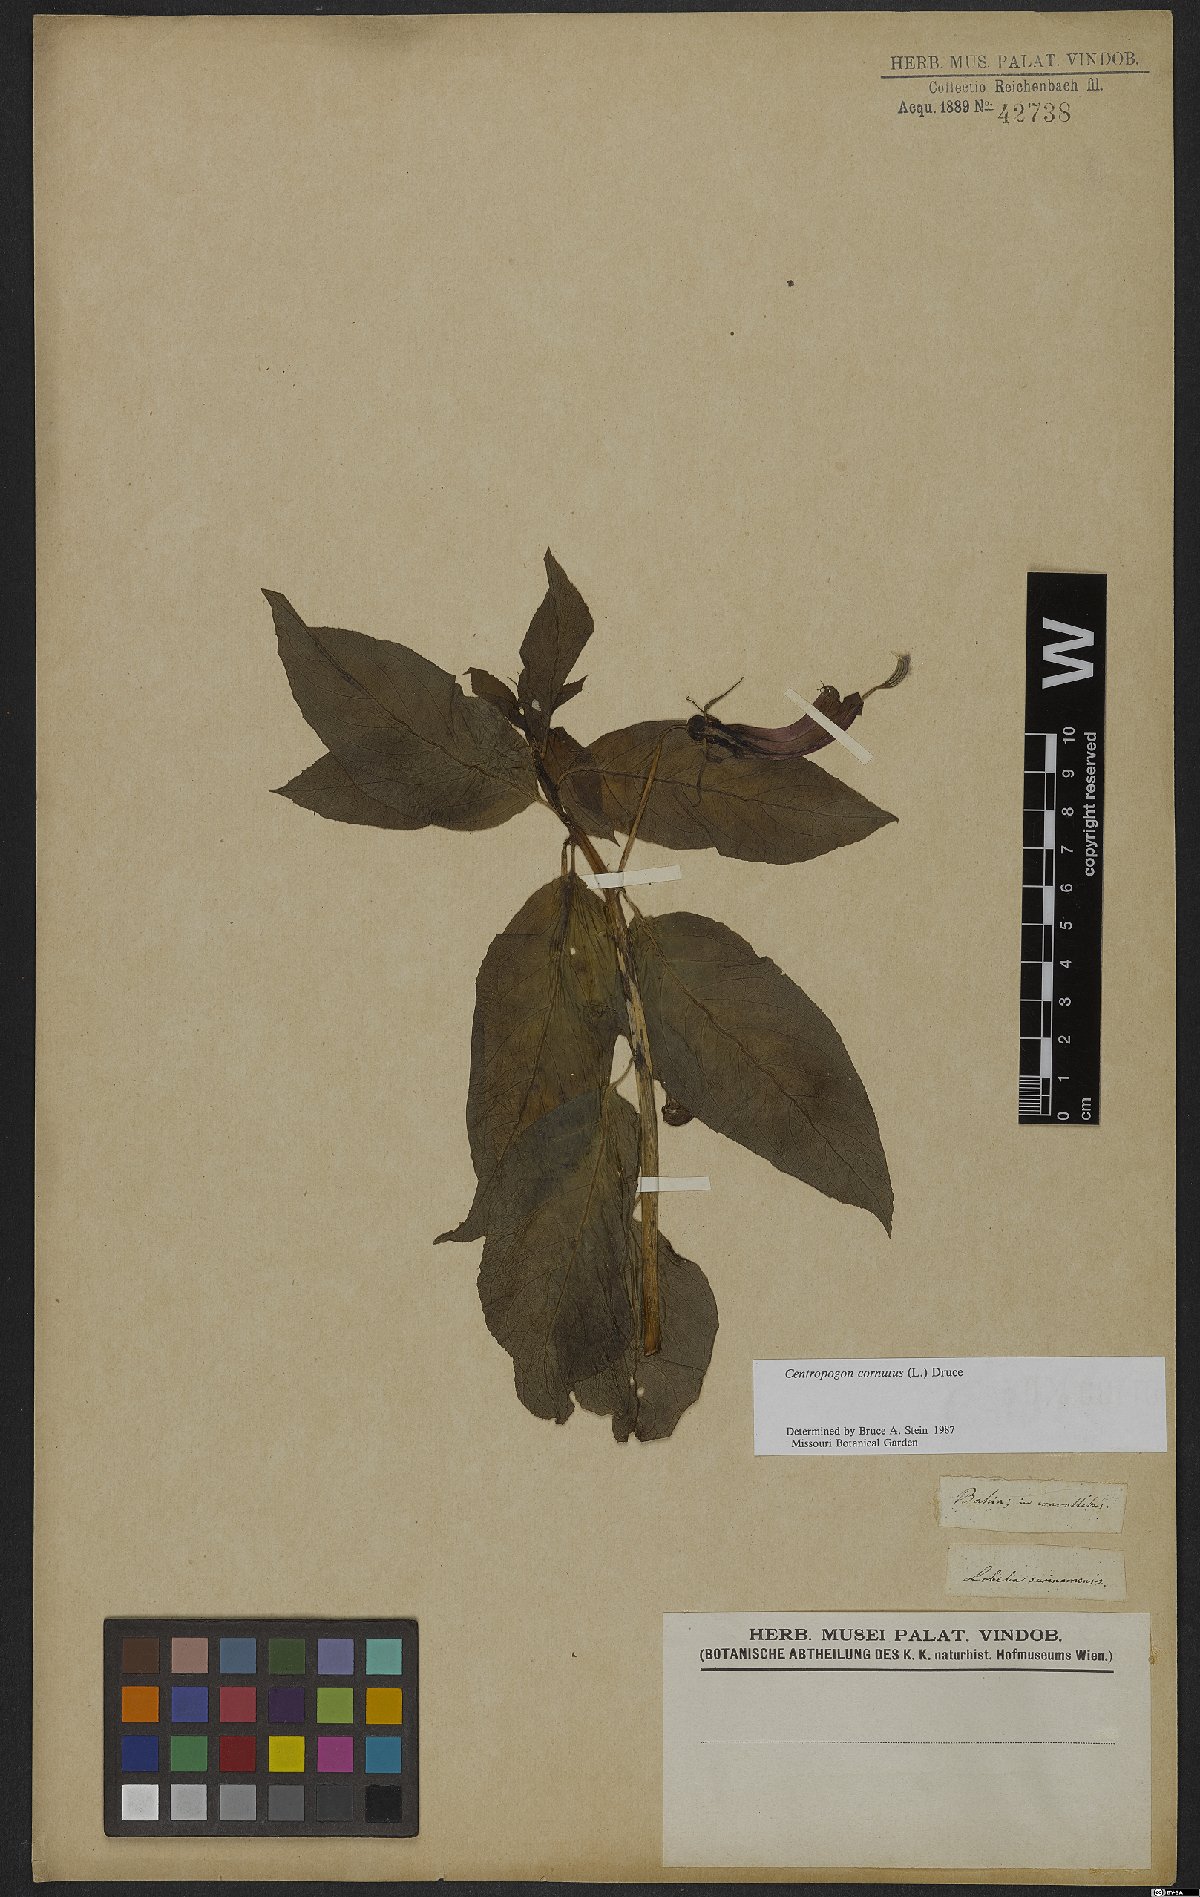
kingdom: Plantae
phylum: Tracheophyta
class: Magnoliopsida
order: Asterales
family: Campanulaceae
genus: Centropogon
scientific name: Centropogon cornutus
